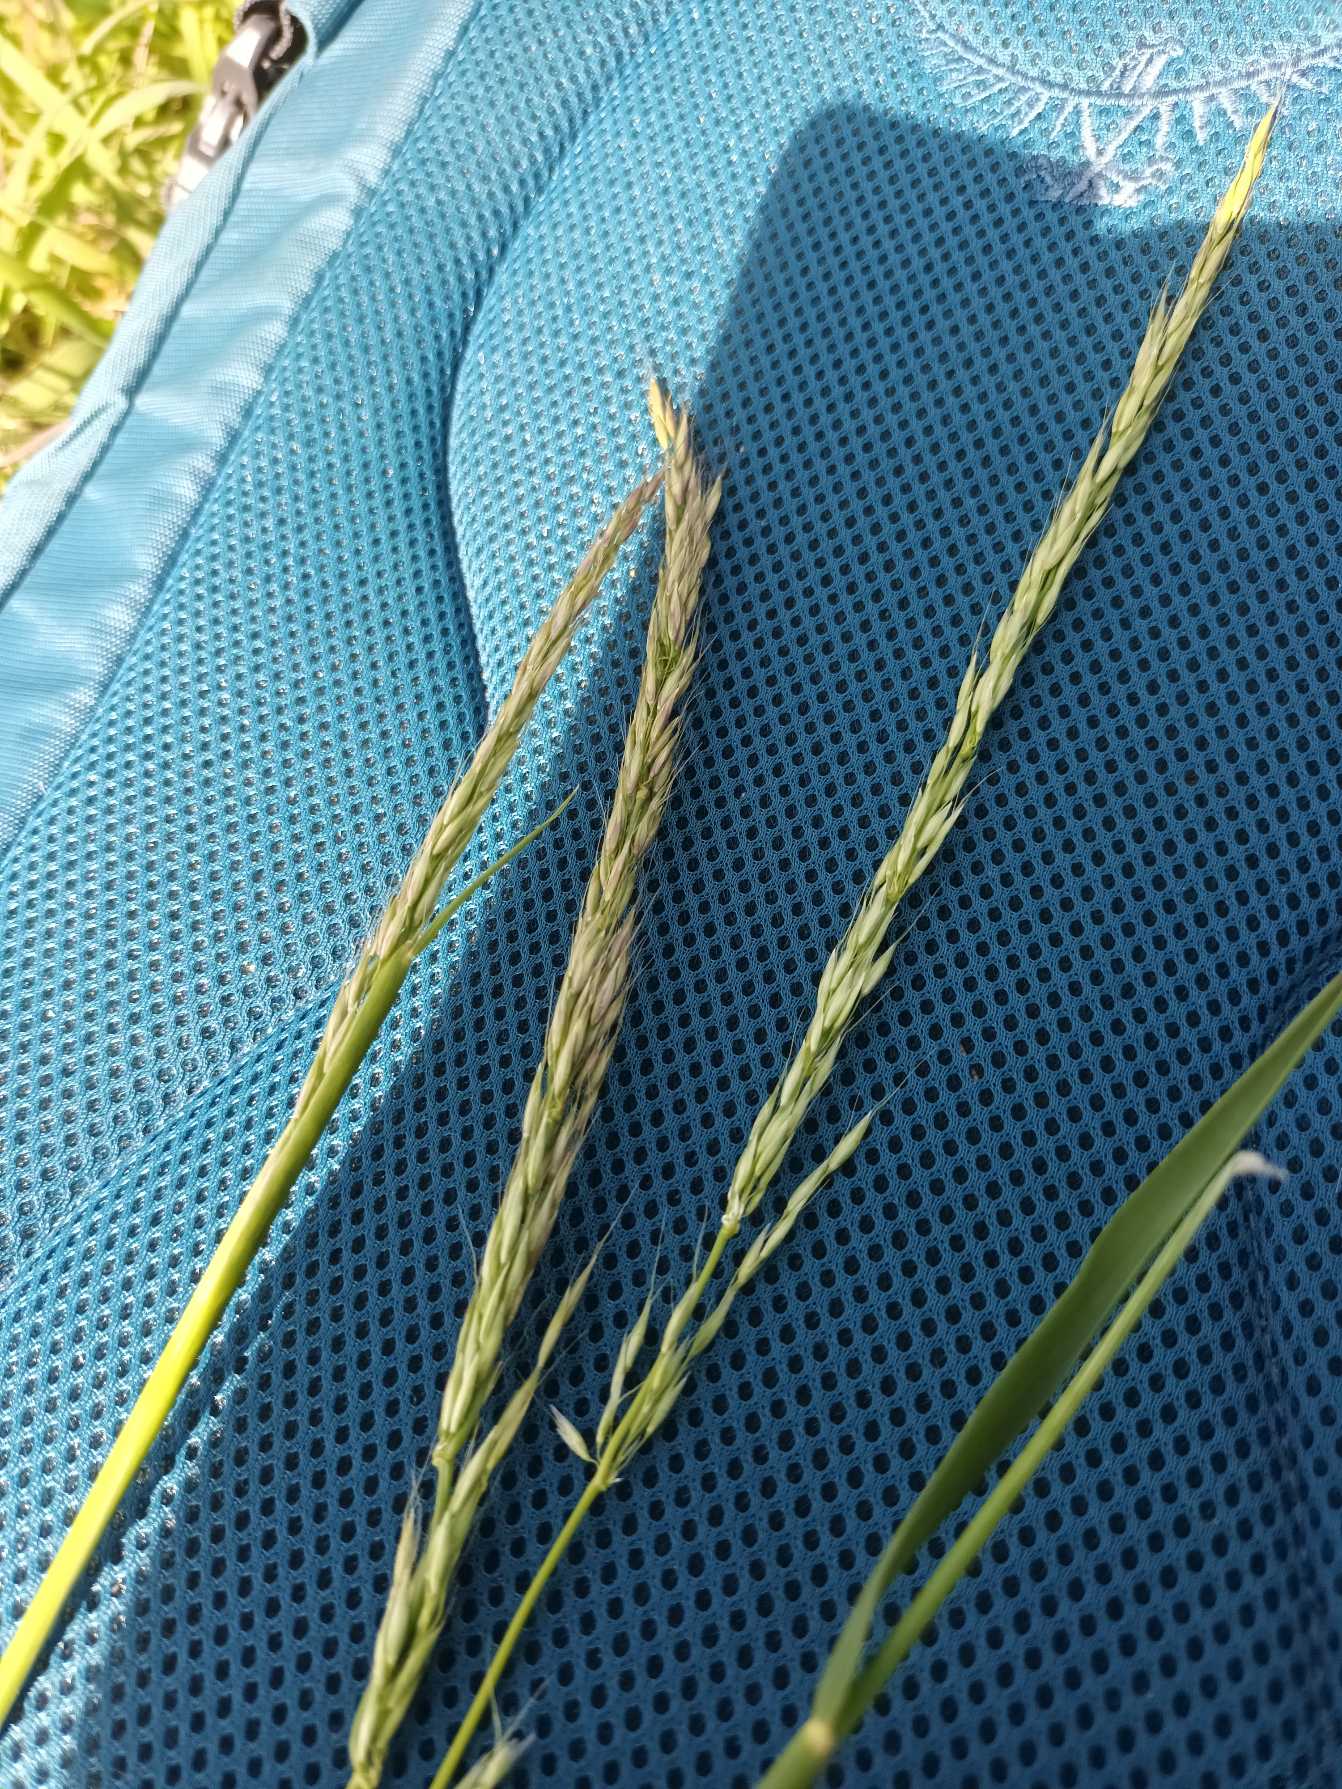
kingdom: Plantae
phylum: Tracheophyta
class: Liliopsida
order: Poales
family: Poaceae
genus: Arrhenatherum
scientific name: Arrhenatherum elatius
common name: Draphavre
